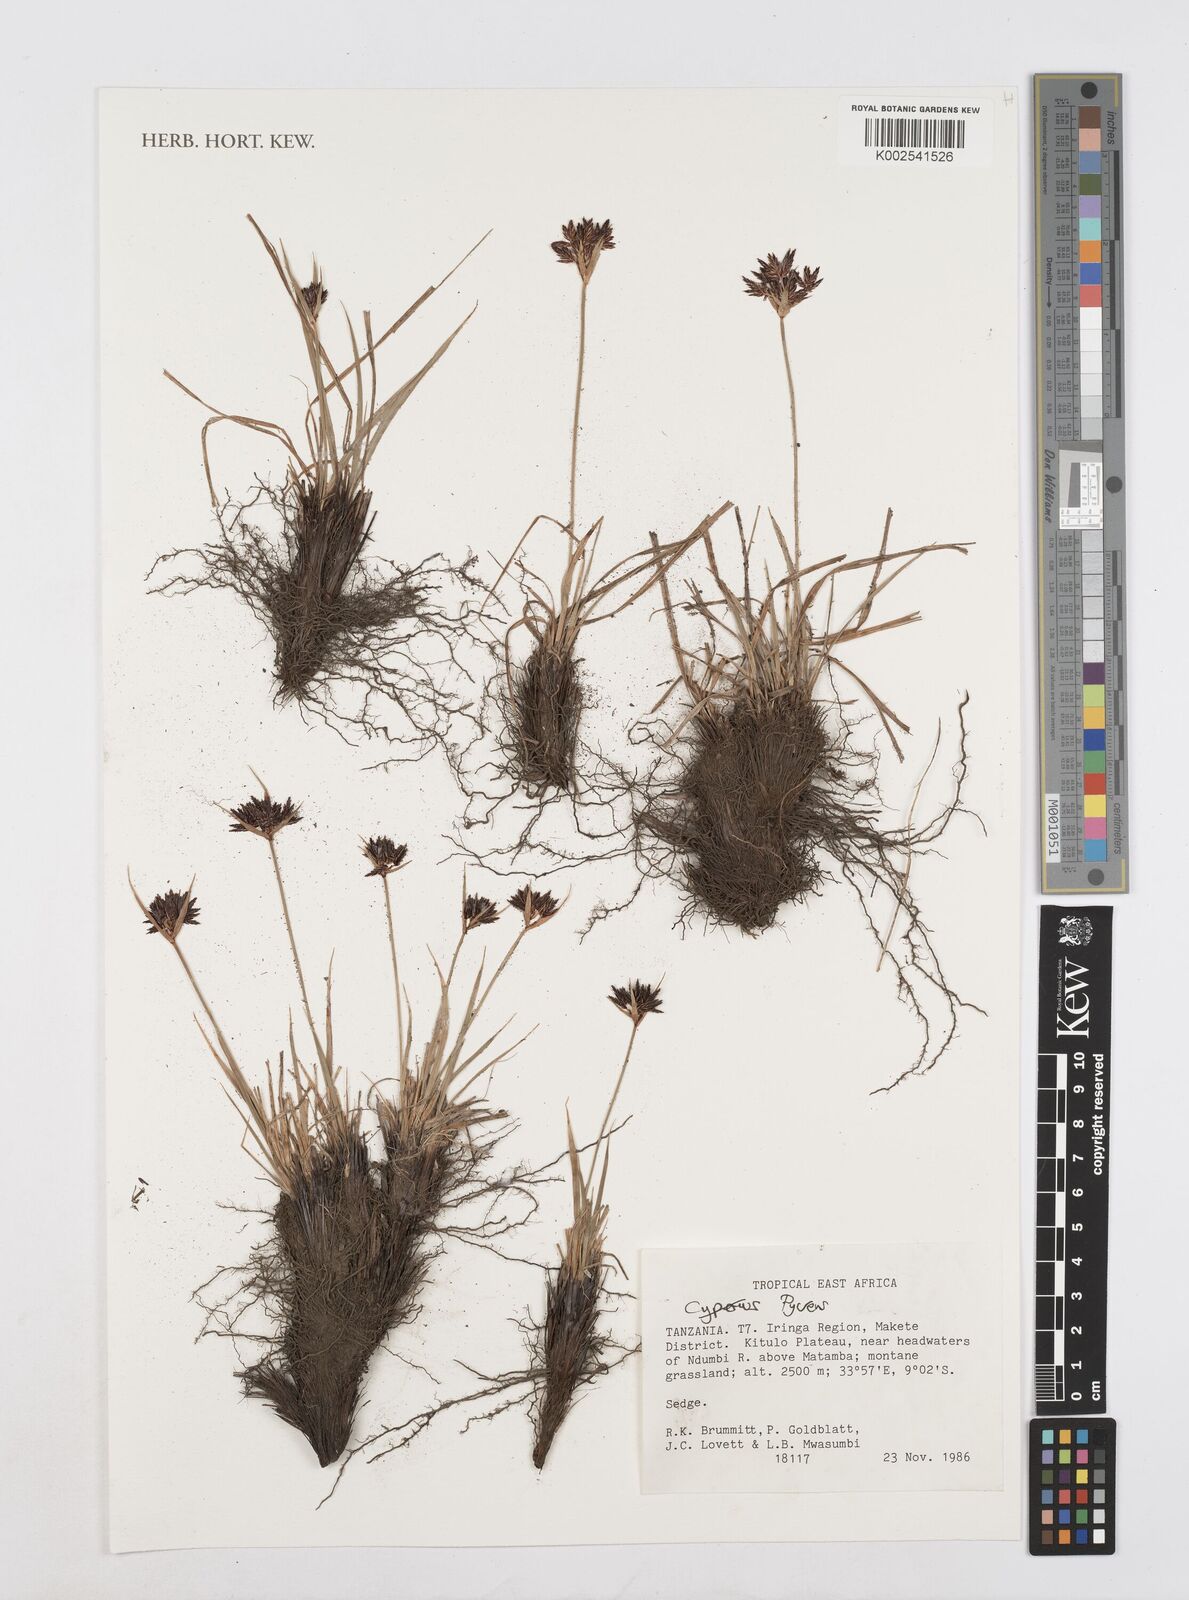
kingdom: Plantae
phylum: Tracheophyta
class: Liliopsida
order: Poales
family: Cyperaceae
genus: Cyperus
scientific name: Cyperus nigricans
